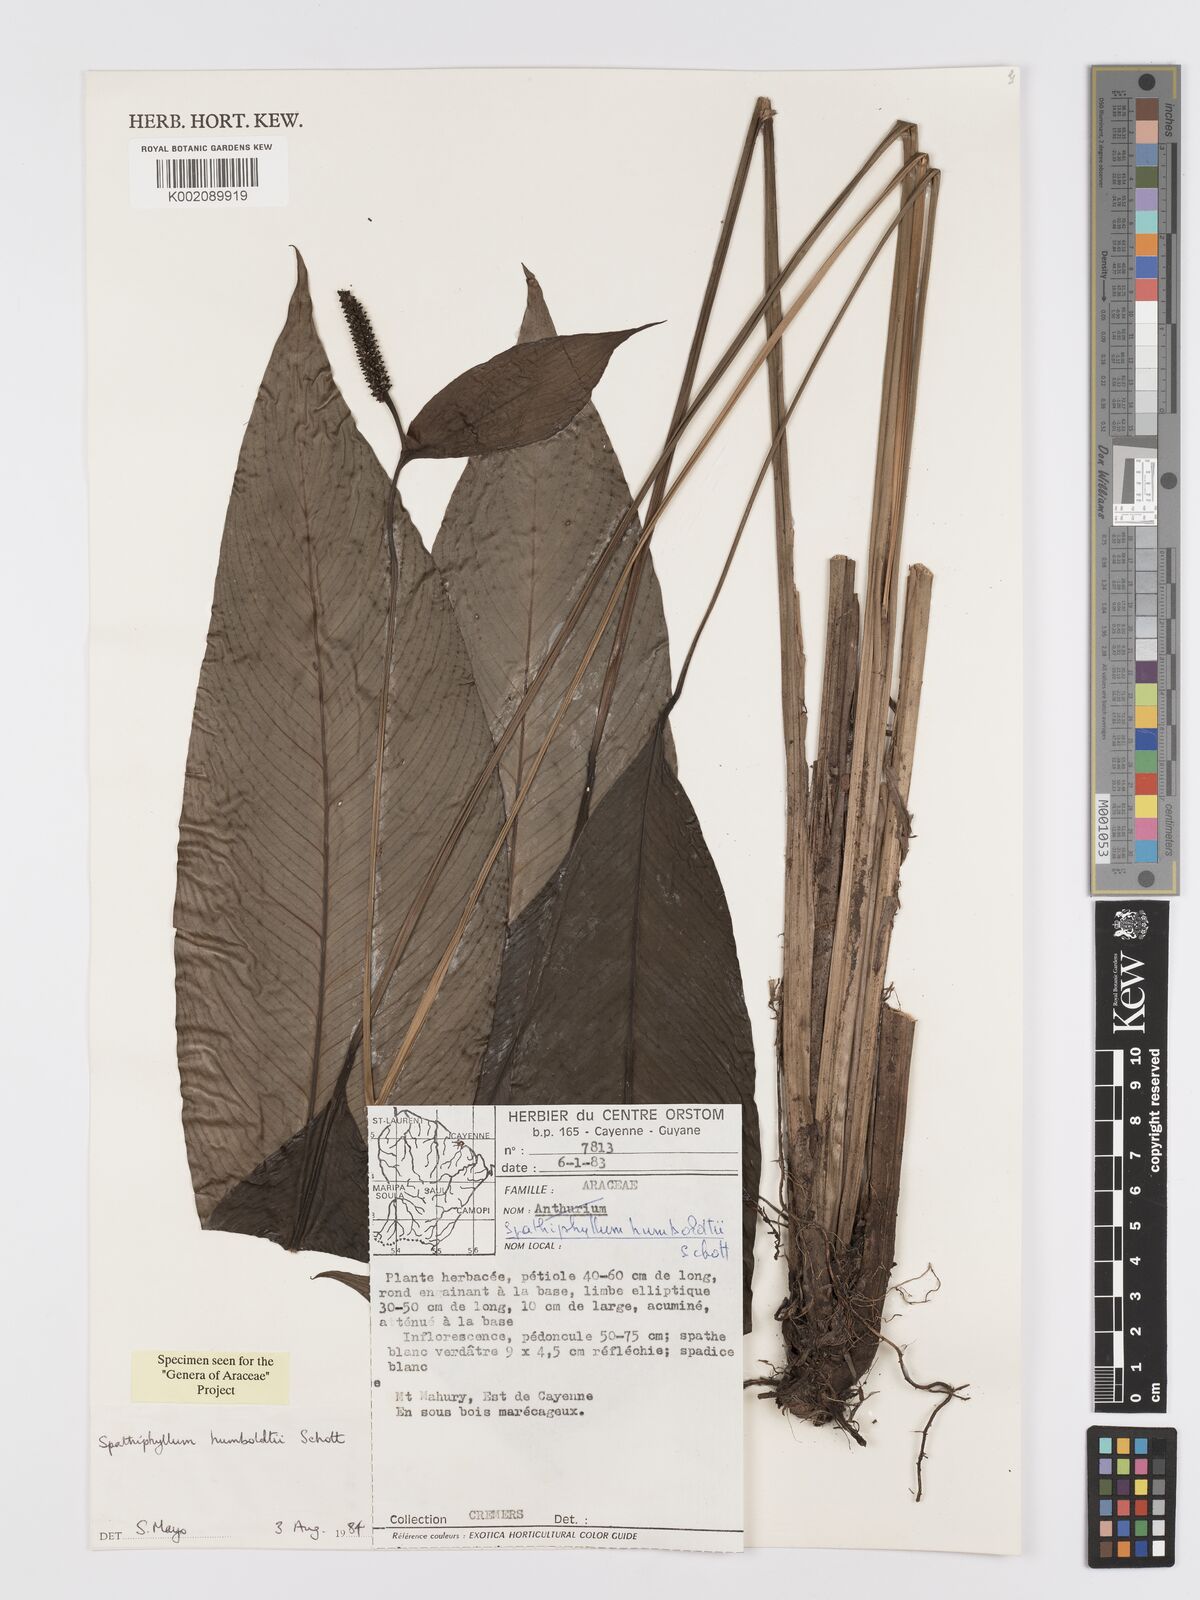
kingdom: Plantae
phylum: Tracheophyta
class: Liliopsida
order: Alismatales
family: Araceae
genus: Spathiphyllum
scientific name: Spathiphyllum humboldtii
